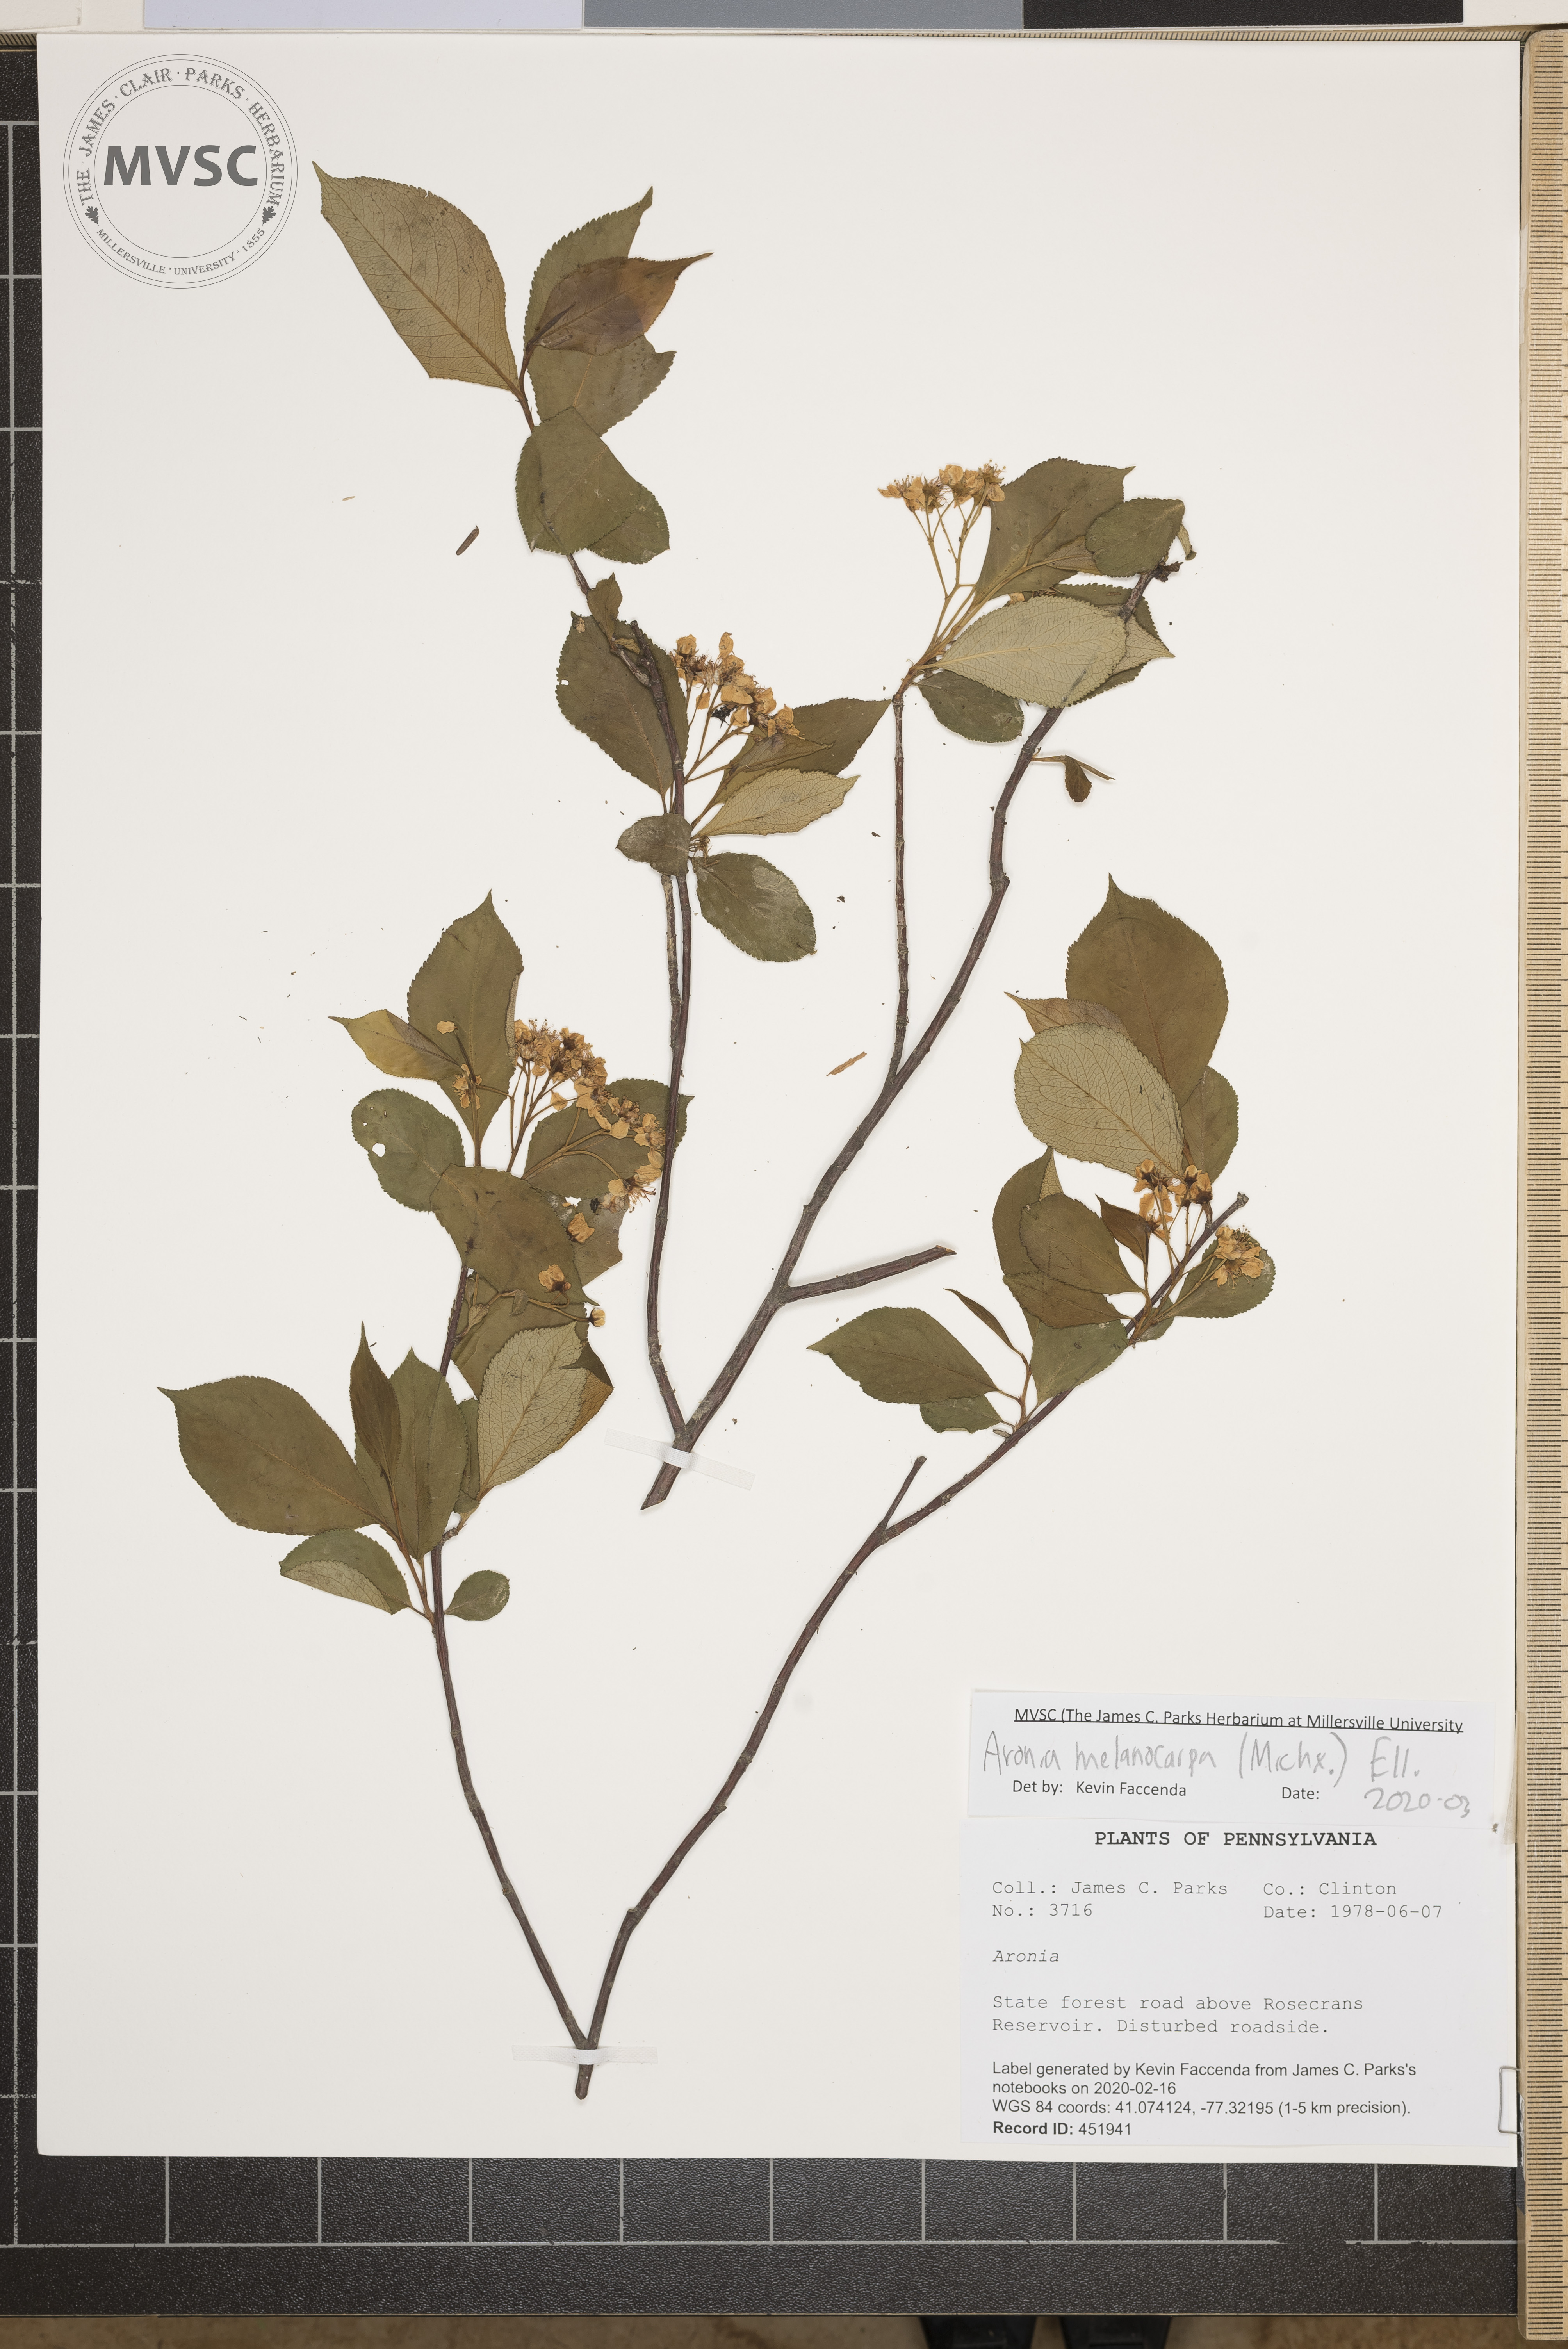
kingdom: Plantae
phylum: Tracheophyta
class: Magnoliopsida
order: Rosales
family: Rosaceae
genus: Aronia
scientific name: Aronia melanocarpa
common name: Black chokeberry
